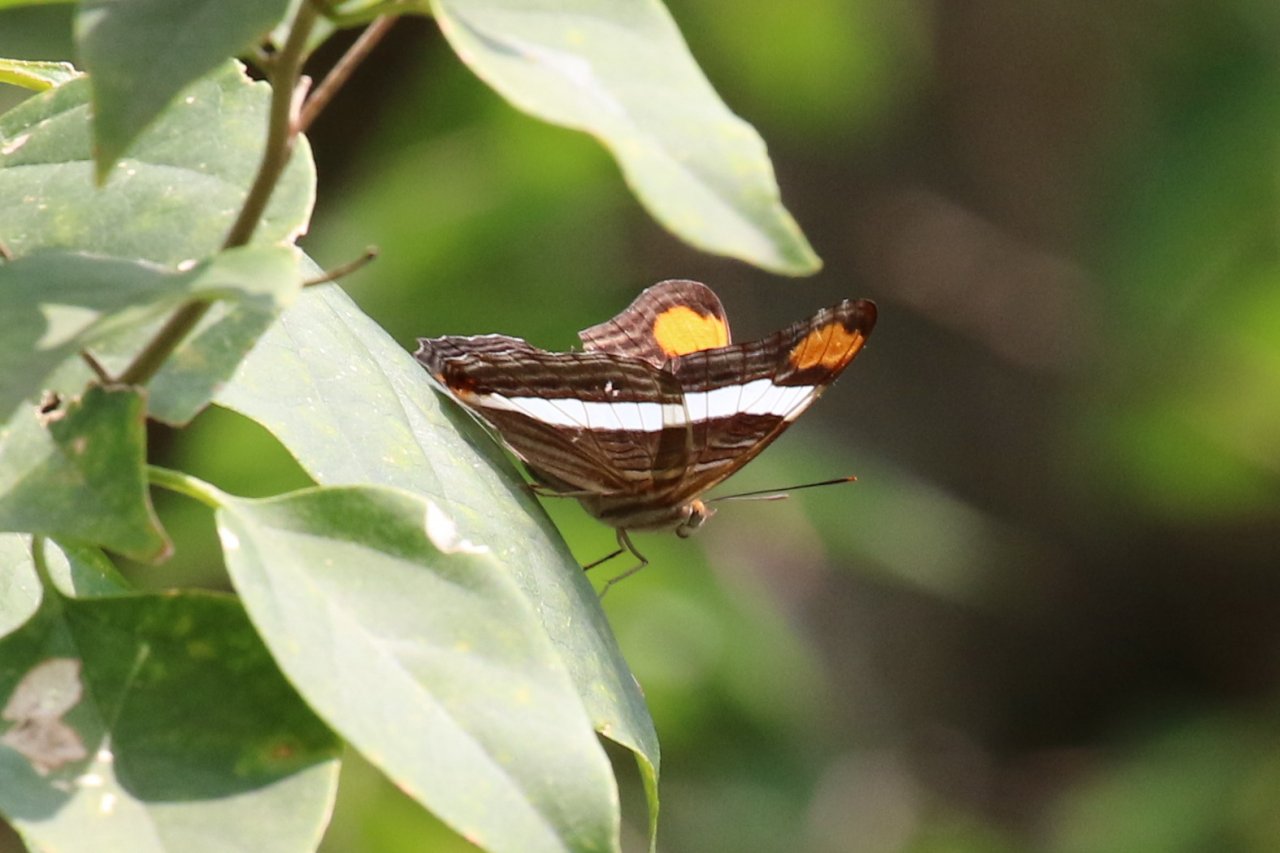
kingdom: Animalia
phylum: Arthropoda
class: Insecta
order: Lepidoptera
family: Nymphalidae
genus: Limenitis
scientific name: Limenitis fessonia
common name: Band-celled Sister
